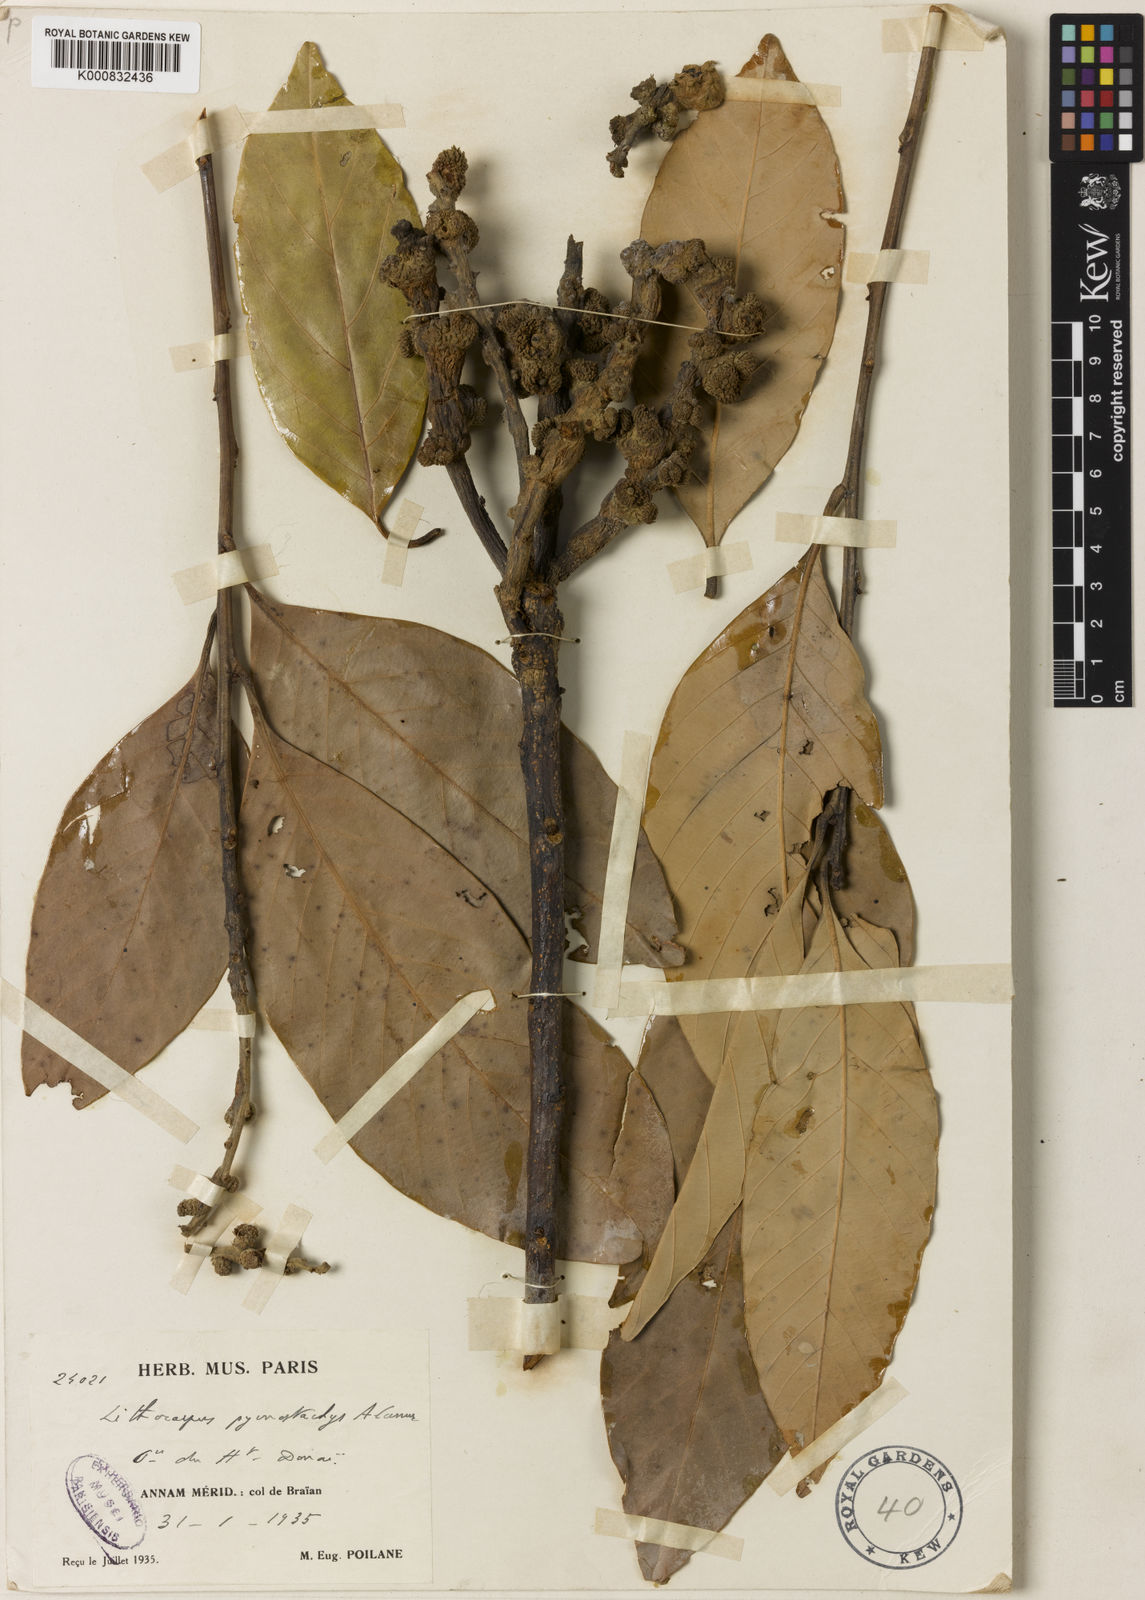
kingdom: Plantae
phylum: Tracheophyta
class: Magnoliopsida
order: Fagales
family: Fagaceae
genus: Lithocarpus
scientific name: Lithocarpus pycnostachys
